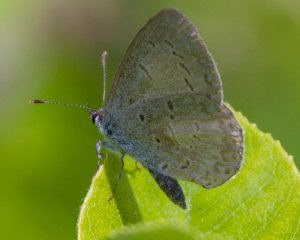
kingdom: Animalia
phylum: Arthropoda
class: Insecta
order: Lepidoptera
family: Lycaenidae
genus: Celastrina
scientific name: Celastrina ladon
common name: Spring Azure
